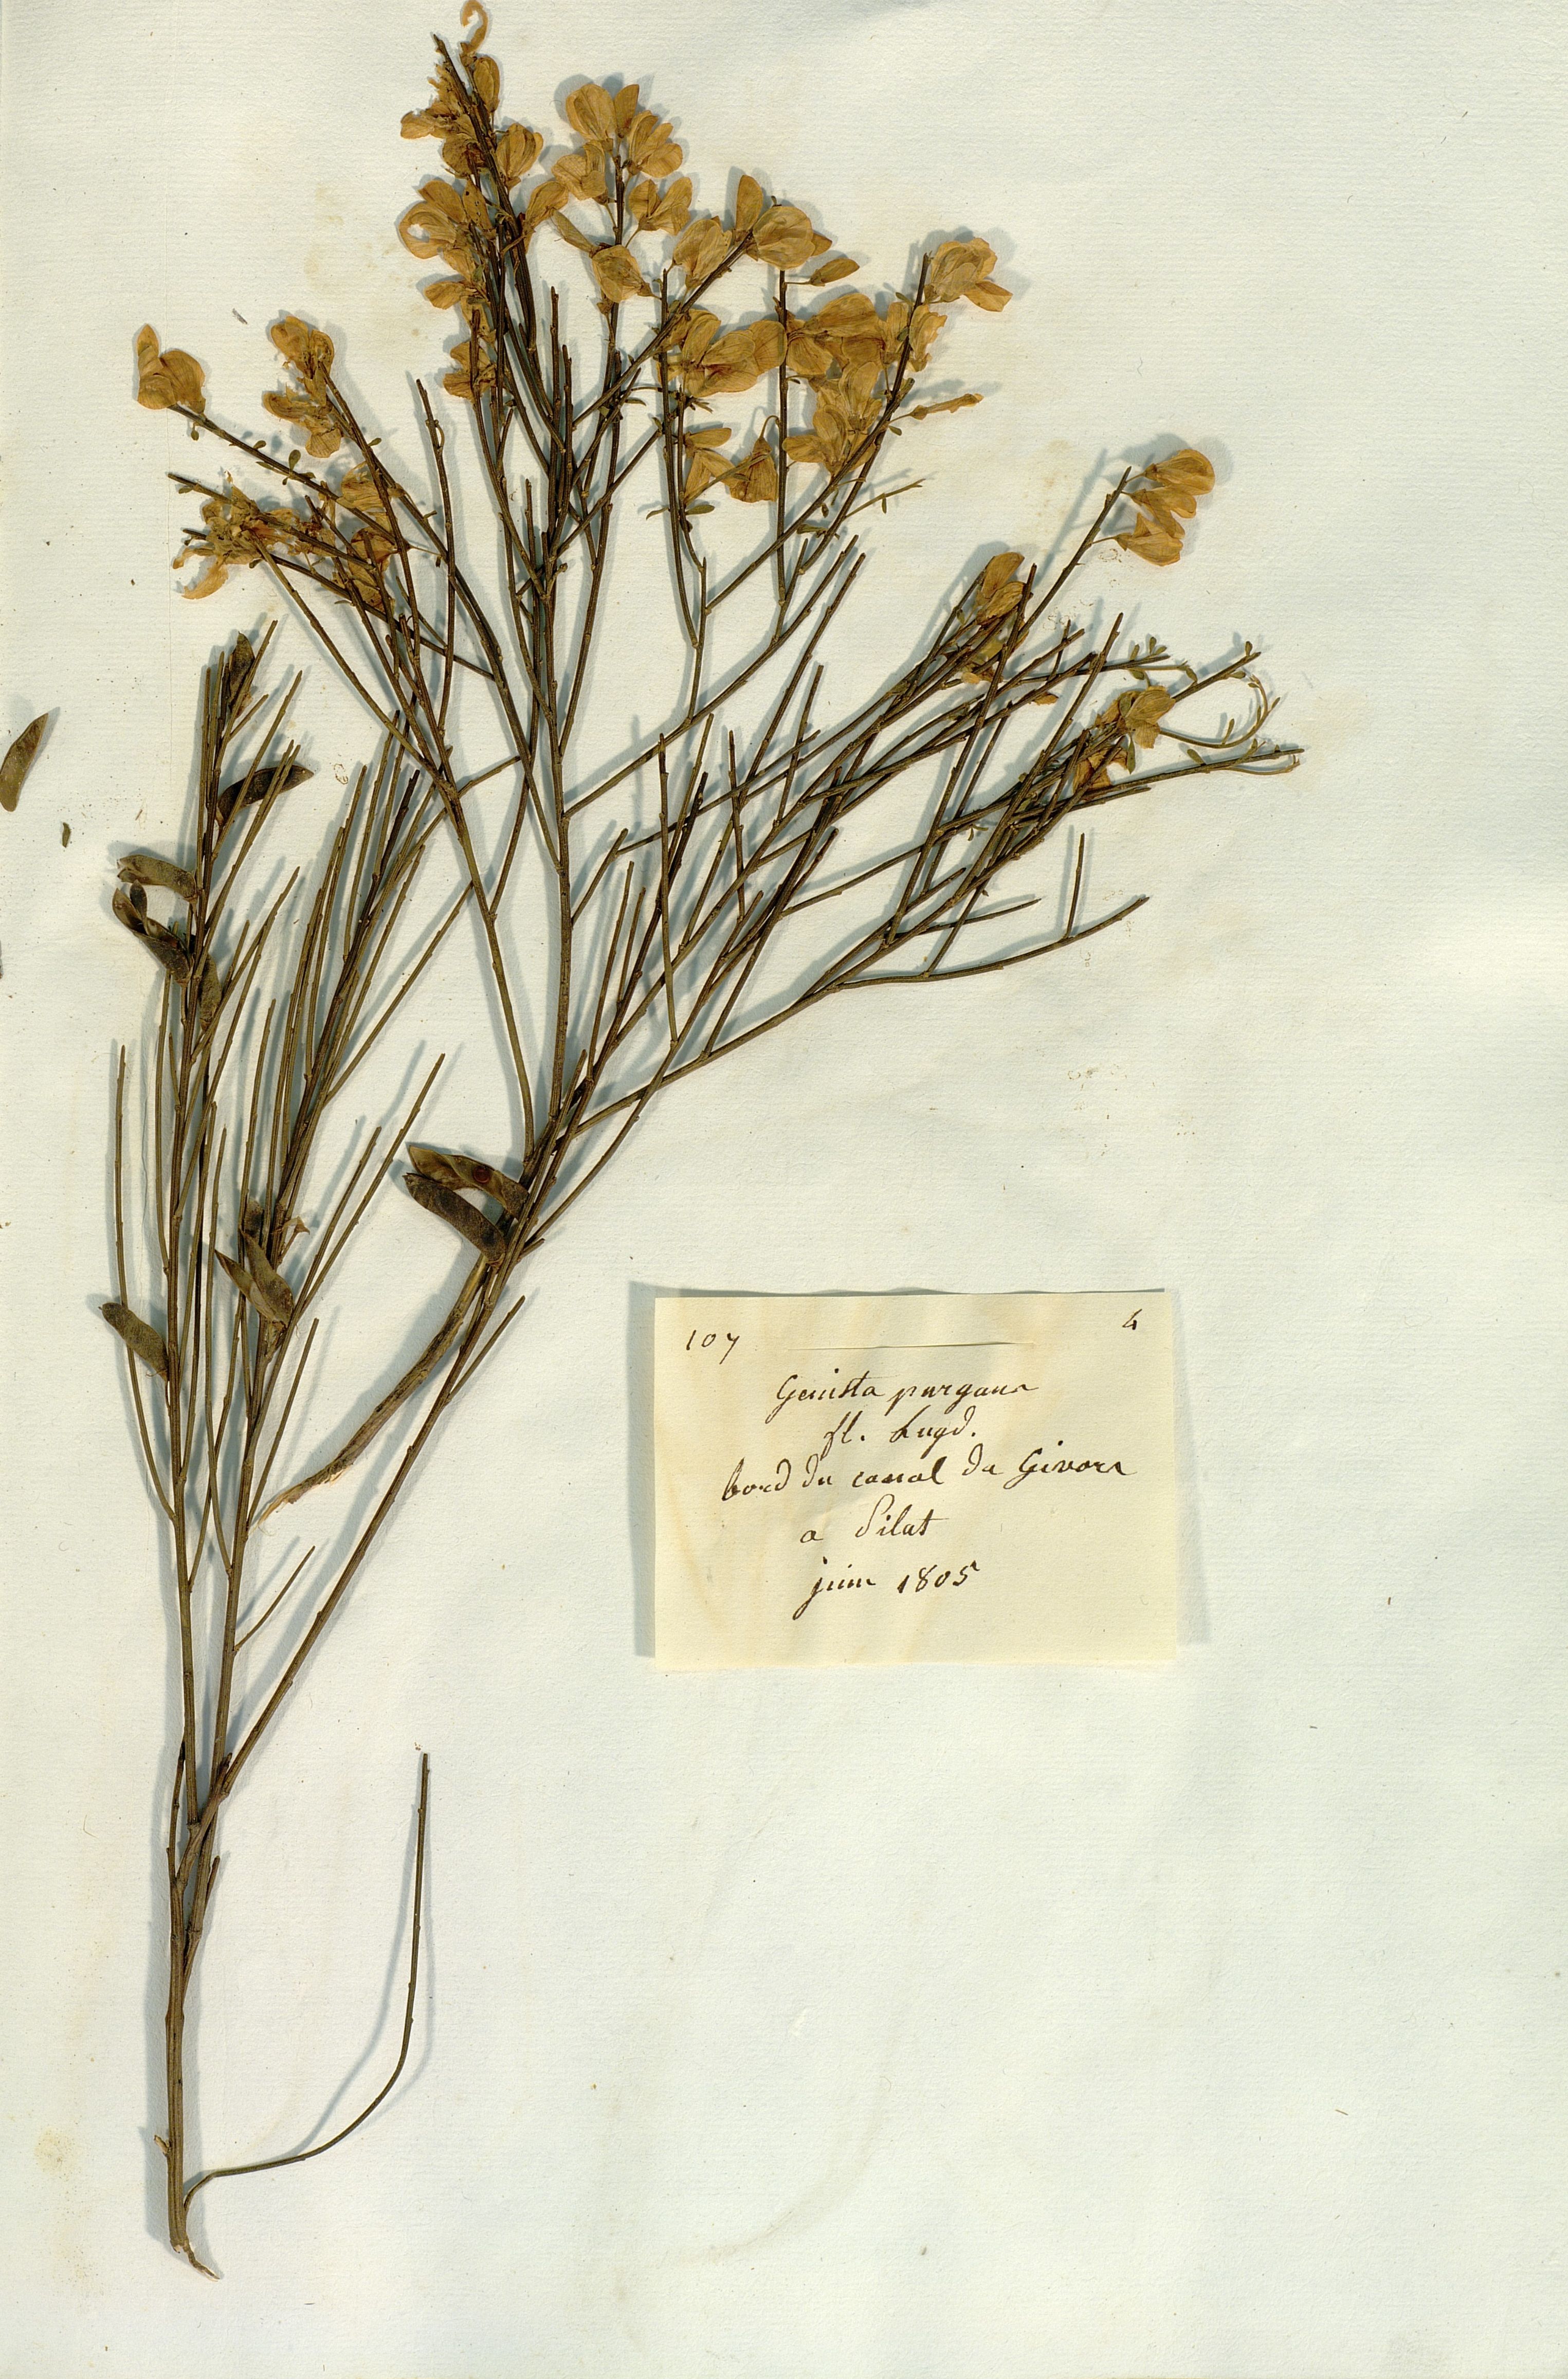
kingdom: Plantae
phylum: Tracheophyta
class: Magnoliopsida
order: Fabales
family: Fabaceae
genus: Genista
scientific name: Genista scorpius
